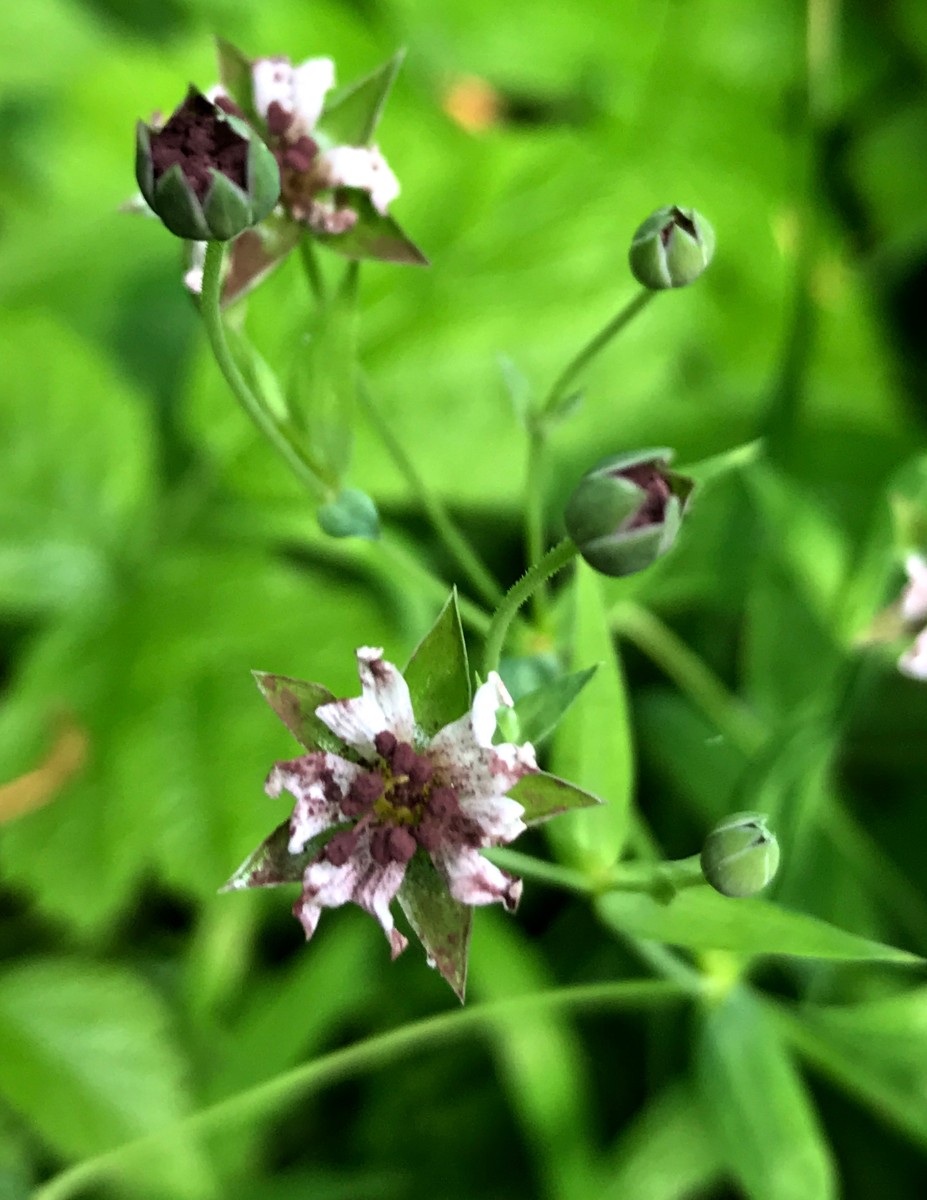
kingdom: Fungi
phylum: Basidiomycota
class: Microbotryomycetes
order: Microbotryales
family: Microbotryaceae
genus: Microbotryum
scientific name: Microbotryum stellariae
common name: fladstjerne-støvbladrust
